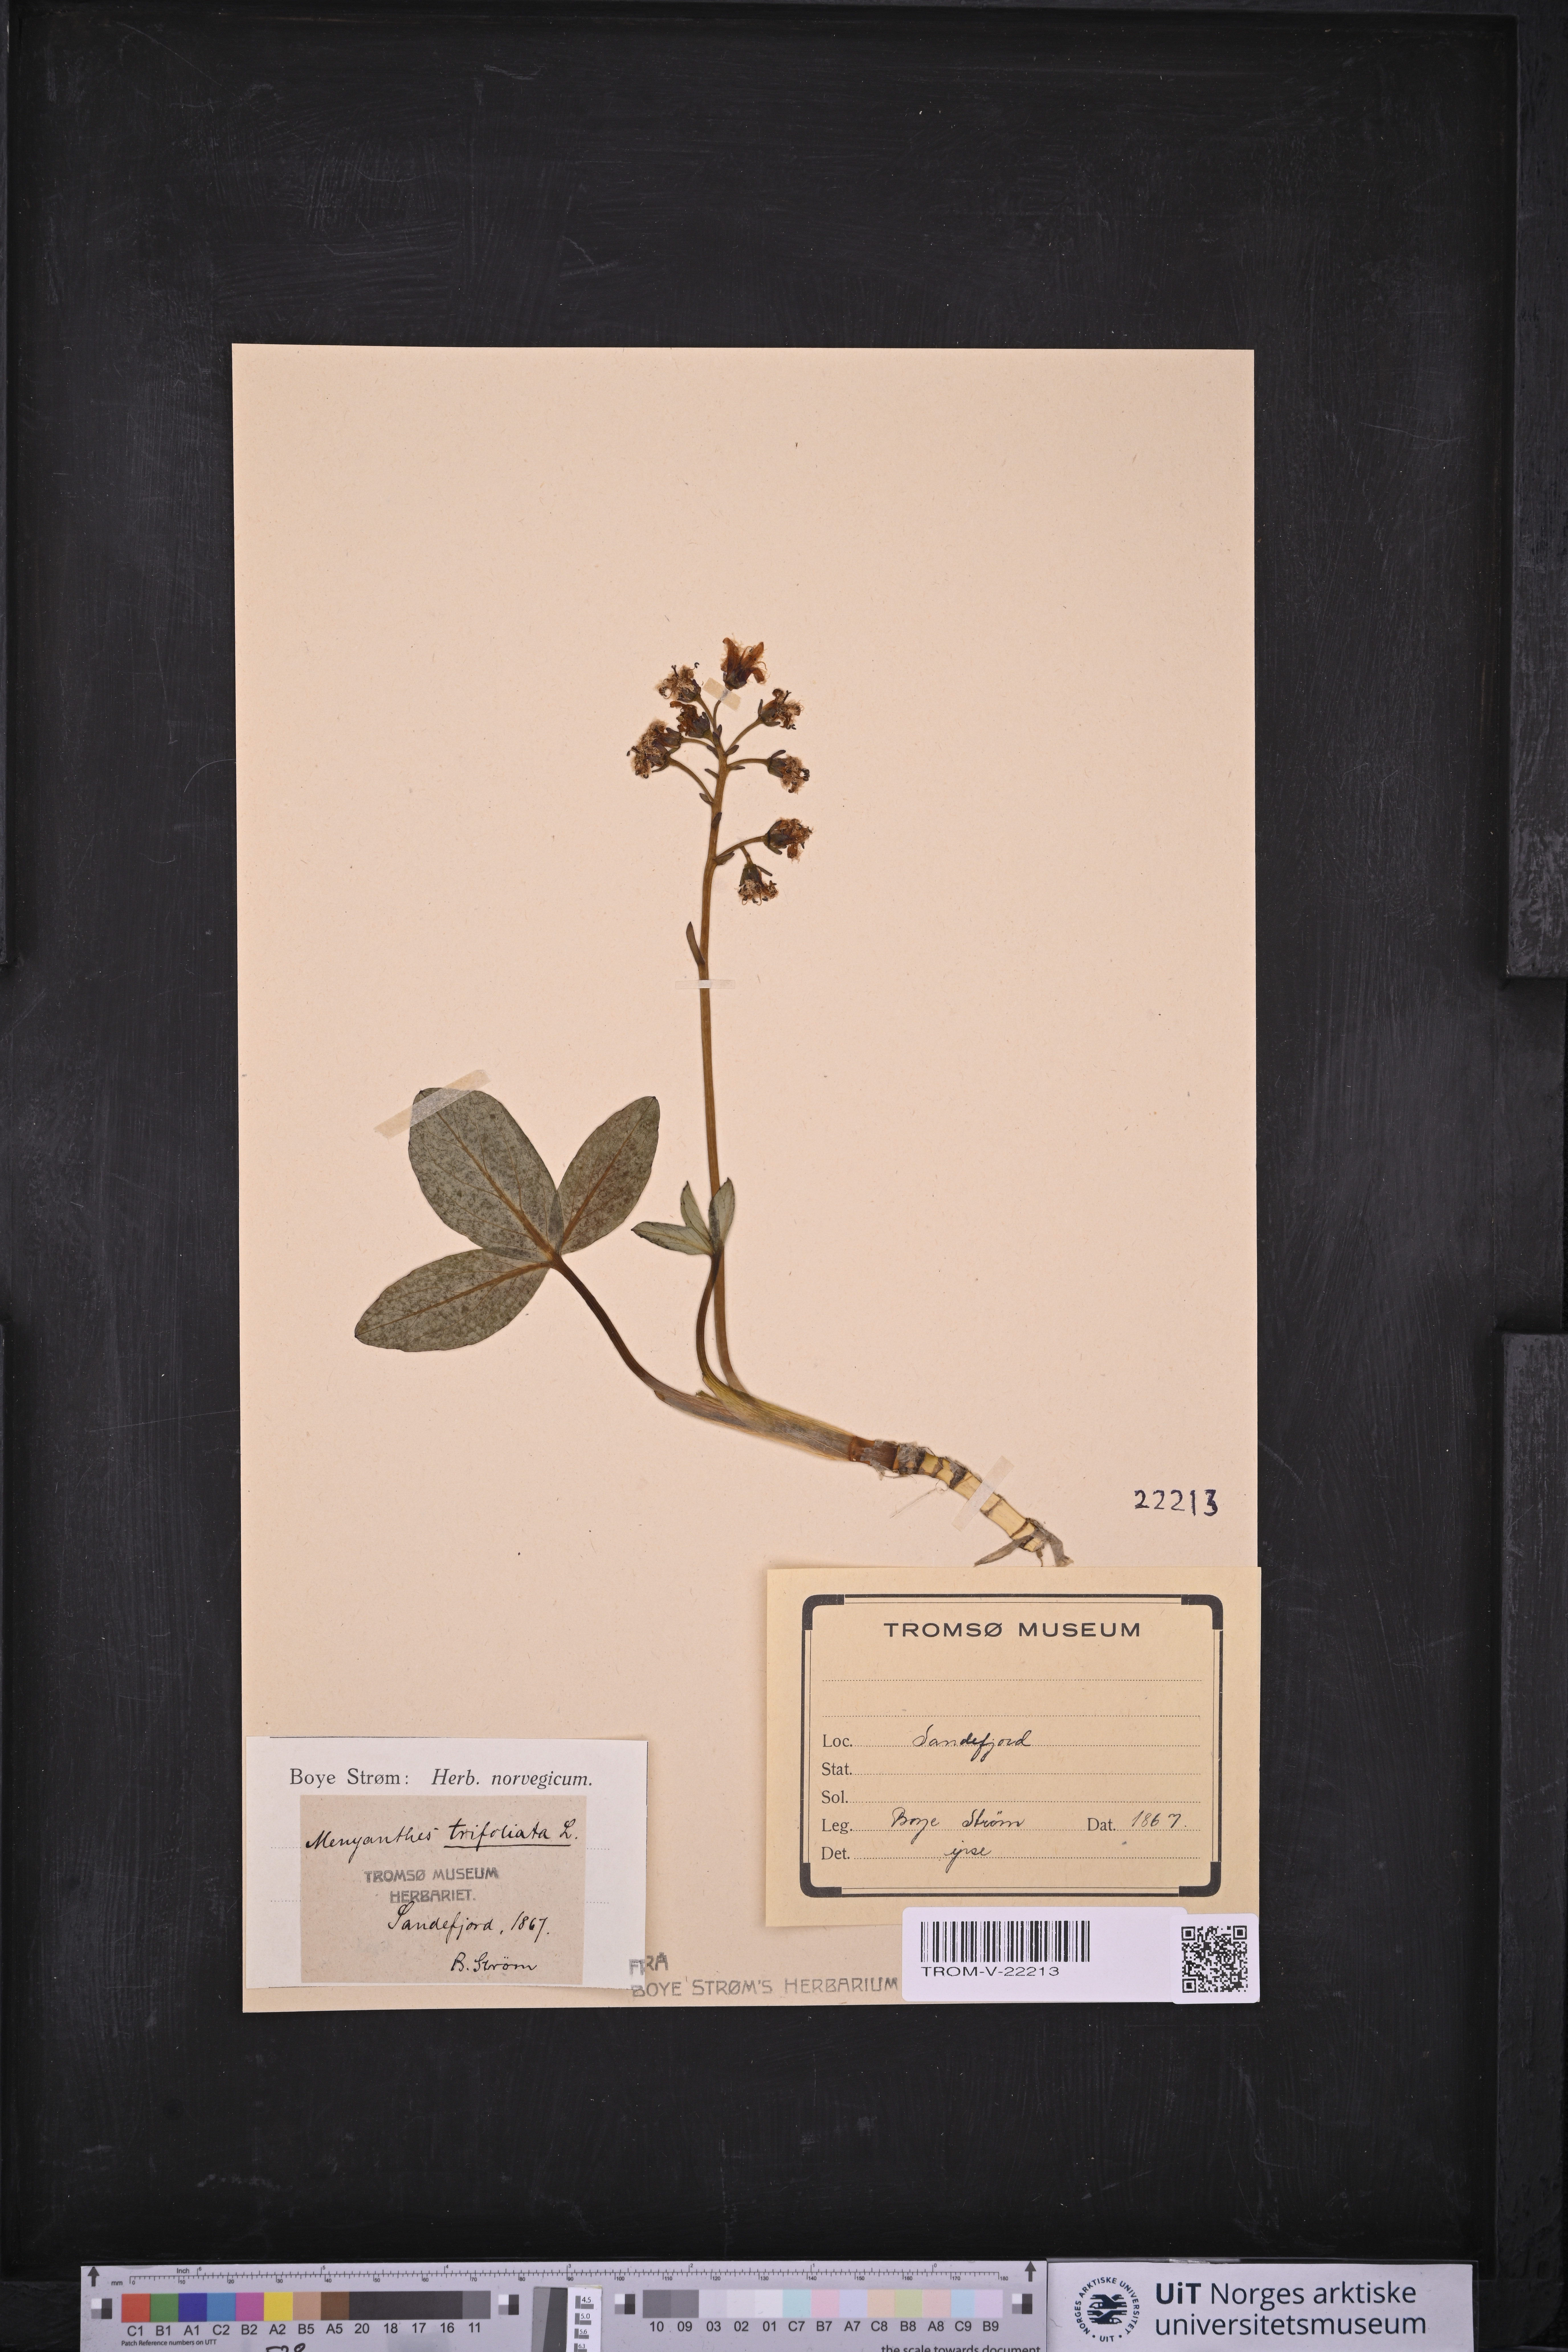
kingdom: Plantae
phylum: Tracheophyta
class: Magnoliopsida
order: Asterales
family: Menyanthaceae
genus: Menyanthes
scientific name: Menyanthes trifoliata
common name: Bogbean
